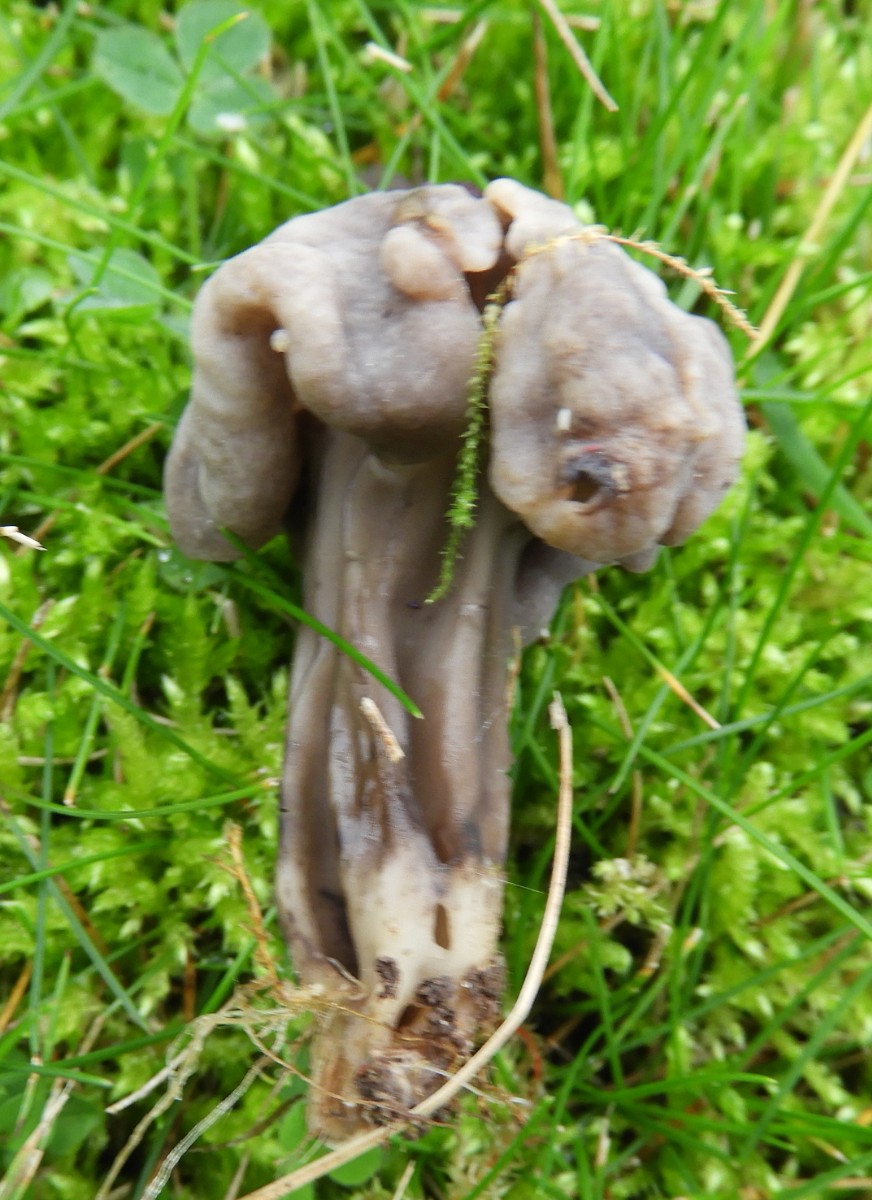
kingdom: Fungi
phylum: Ascomycota
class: Pezizomycetes
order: Pezizales
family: Helvellaceae
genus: Helvella
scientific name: Helvella lacunosa
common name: grubet foldhat
